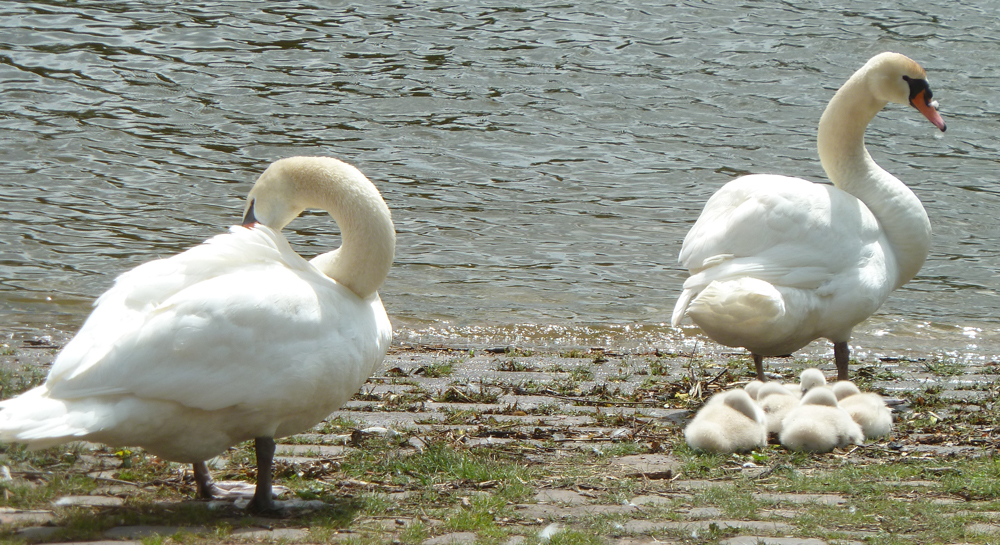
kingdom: Animalia
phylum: Chordata
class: Aves
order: Anseriformes
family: Anatidae
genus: Cygnus
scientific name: Cygnus olor
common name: Mute swan
